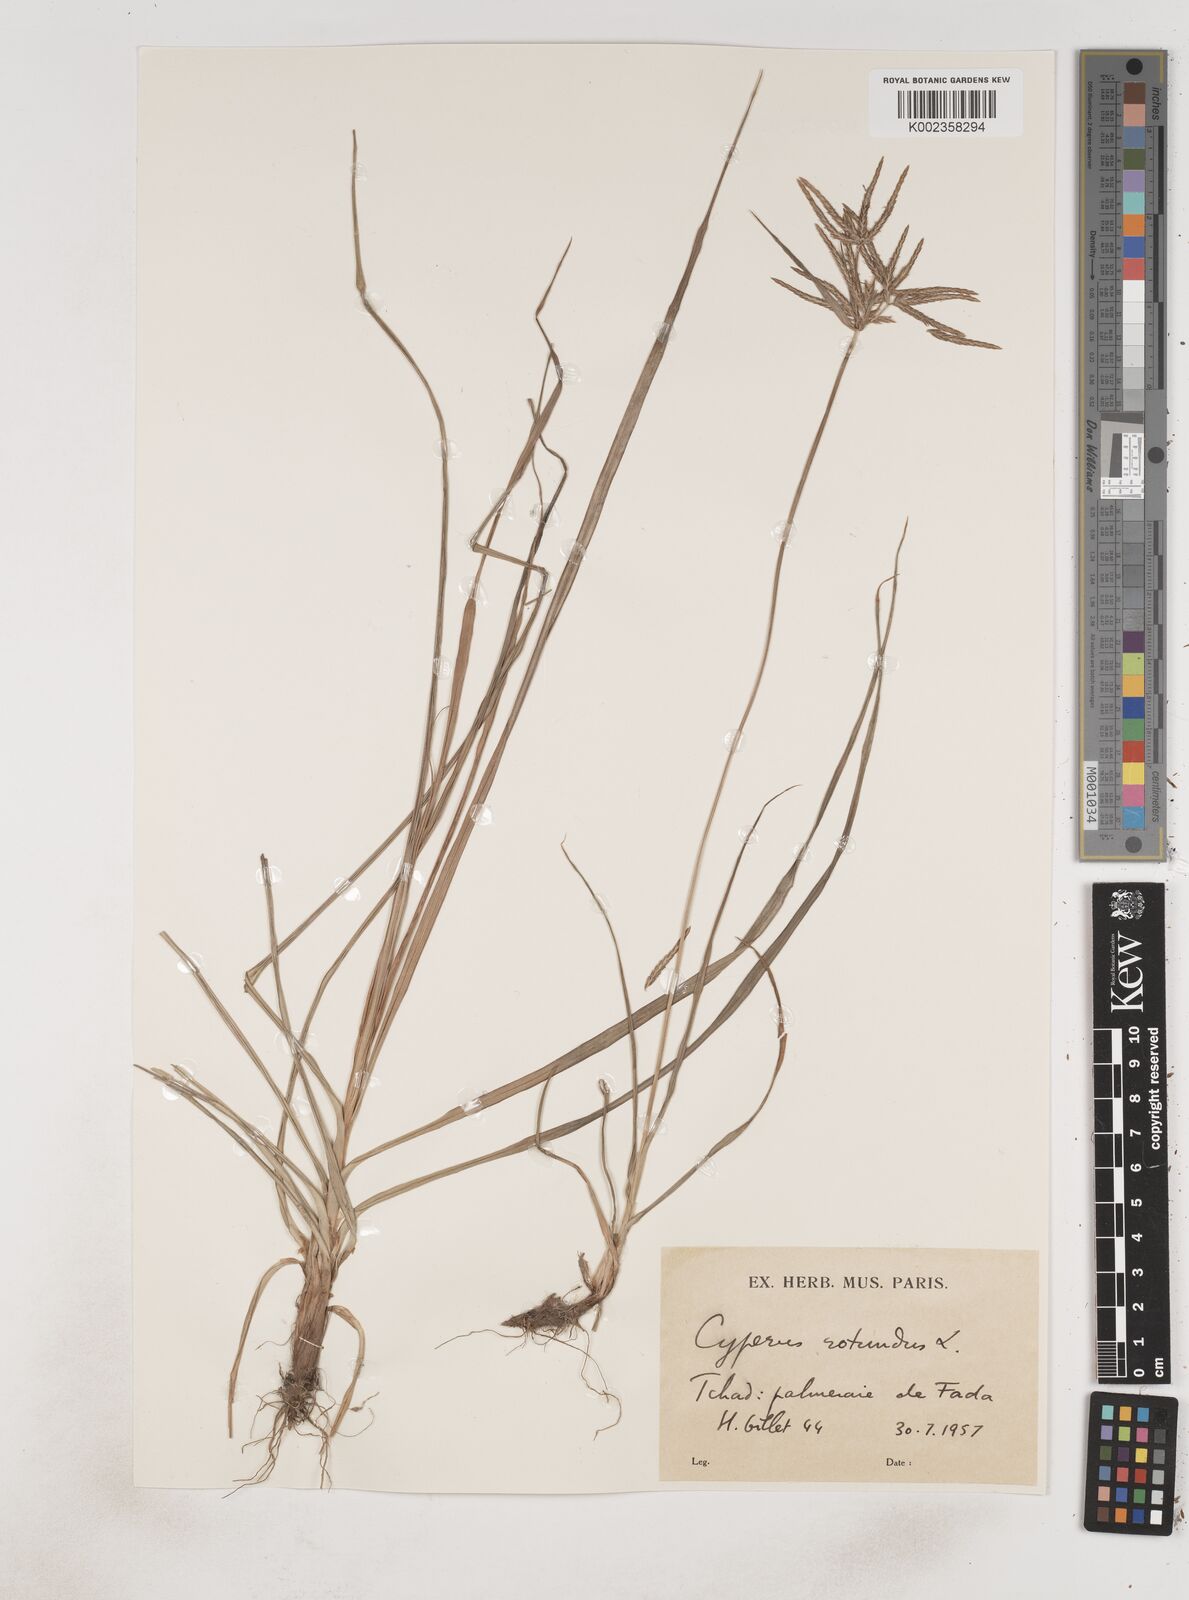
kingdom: Plantae
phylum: Tracheophyta
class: Liliopsida
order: Poales
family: Cyperaceae
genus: Cyperus
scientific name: Cyperus rotundus
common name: Nutgrass
